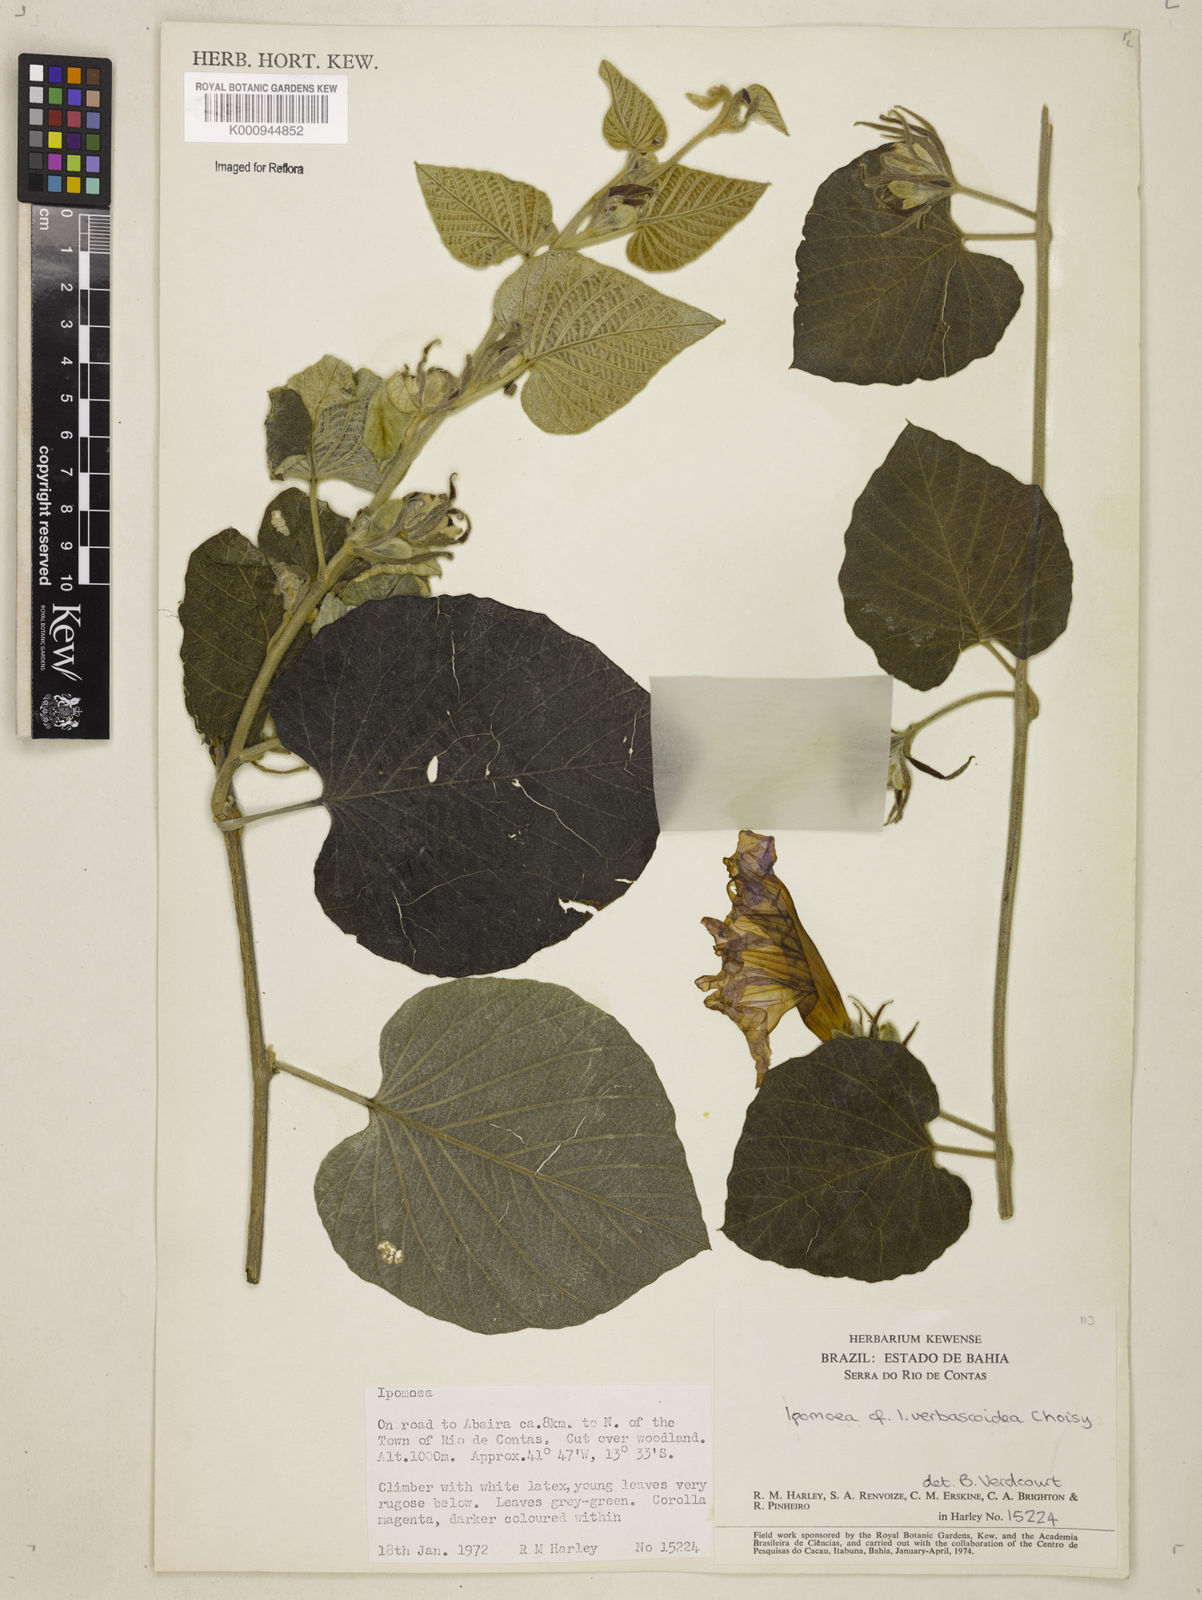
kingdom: Plantae
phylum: Tracheophyta
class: Magnoliopsida
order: Solanales
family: Convolvulaceae
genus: Ipomoea
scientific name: Ipomoea brasiliana
